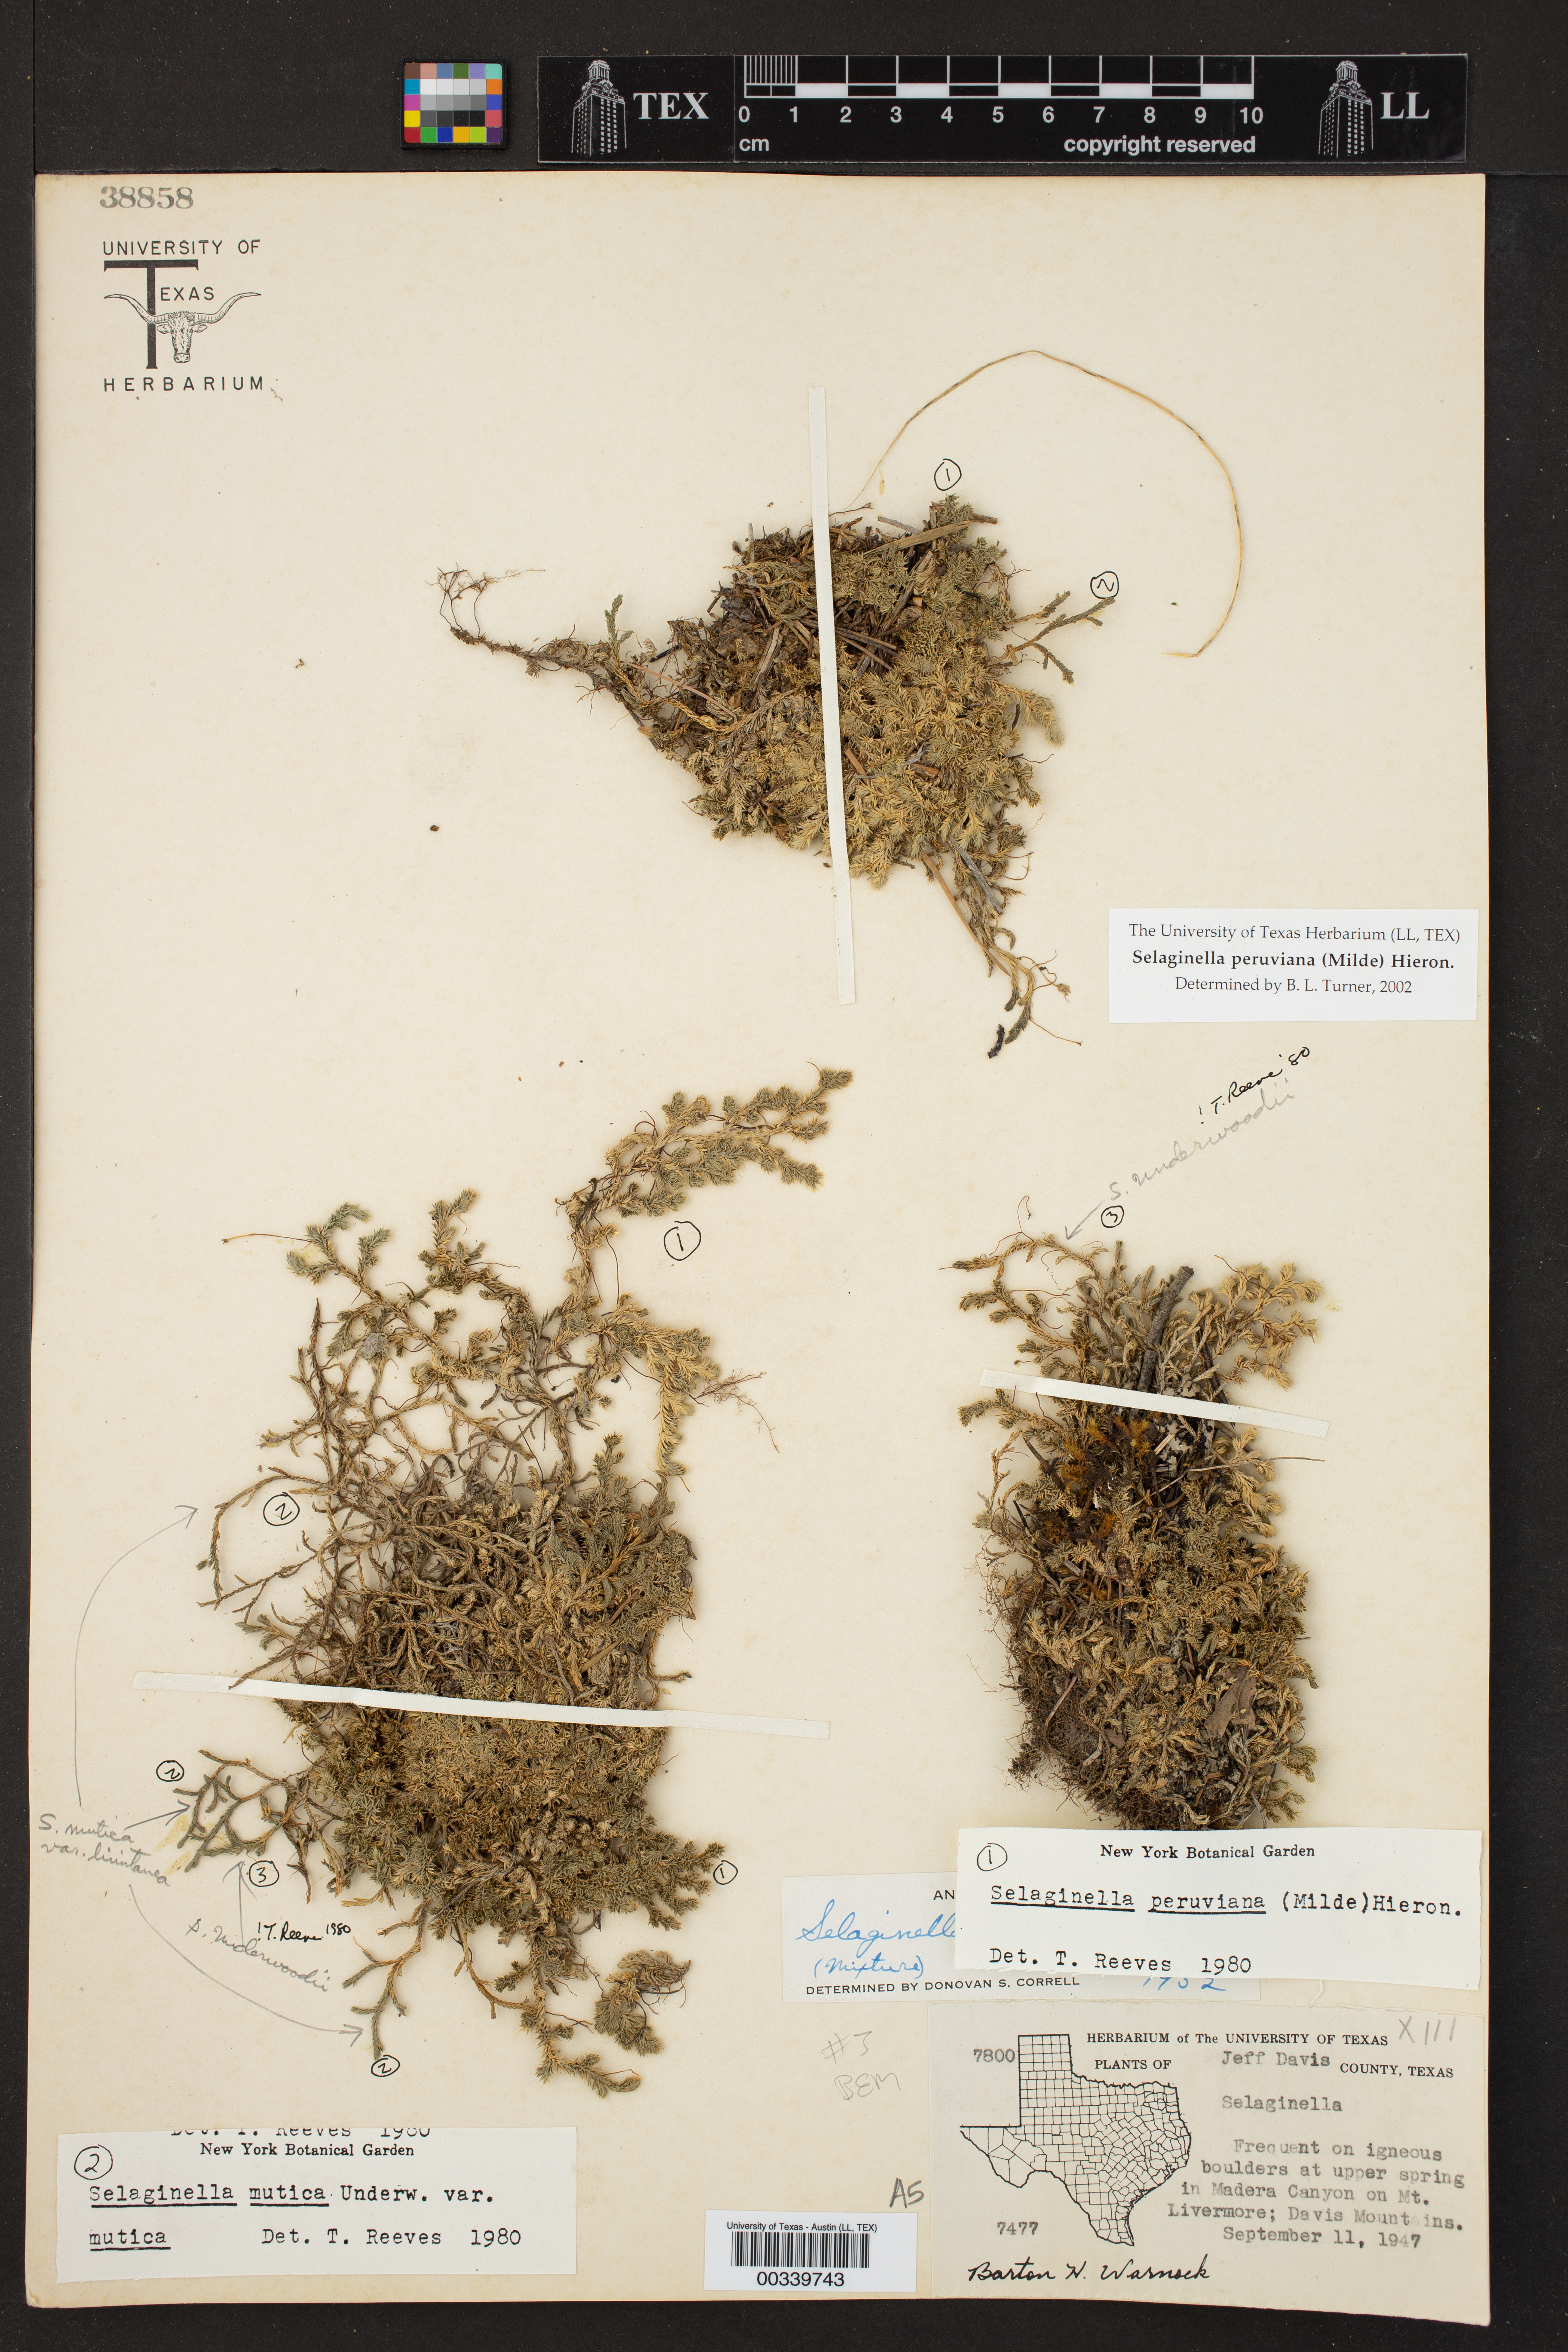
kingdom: Plantae
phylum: Tracheophyta
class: Lycopodiopsida
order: Selaginellales
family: Selaginellaceae
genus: Selaginella
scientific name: Selaginella peruviana
